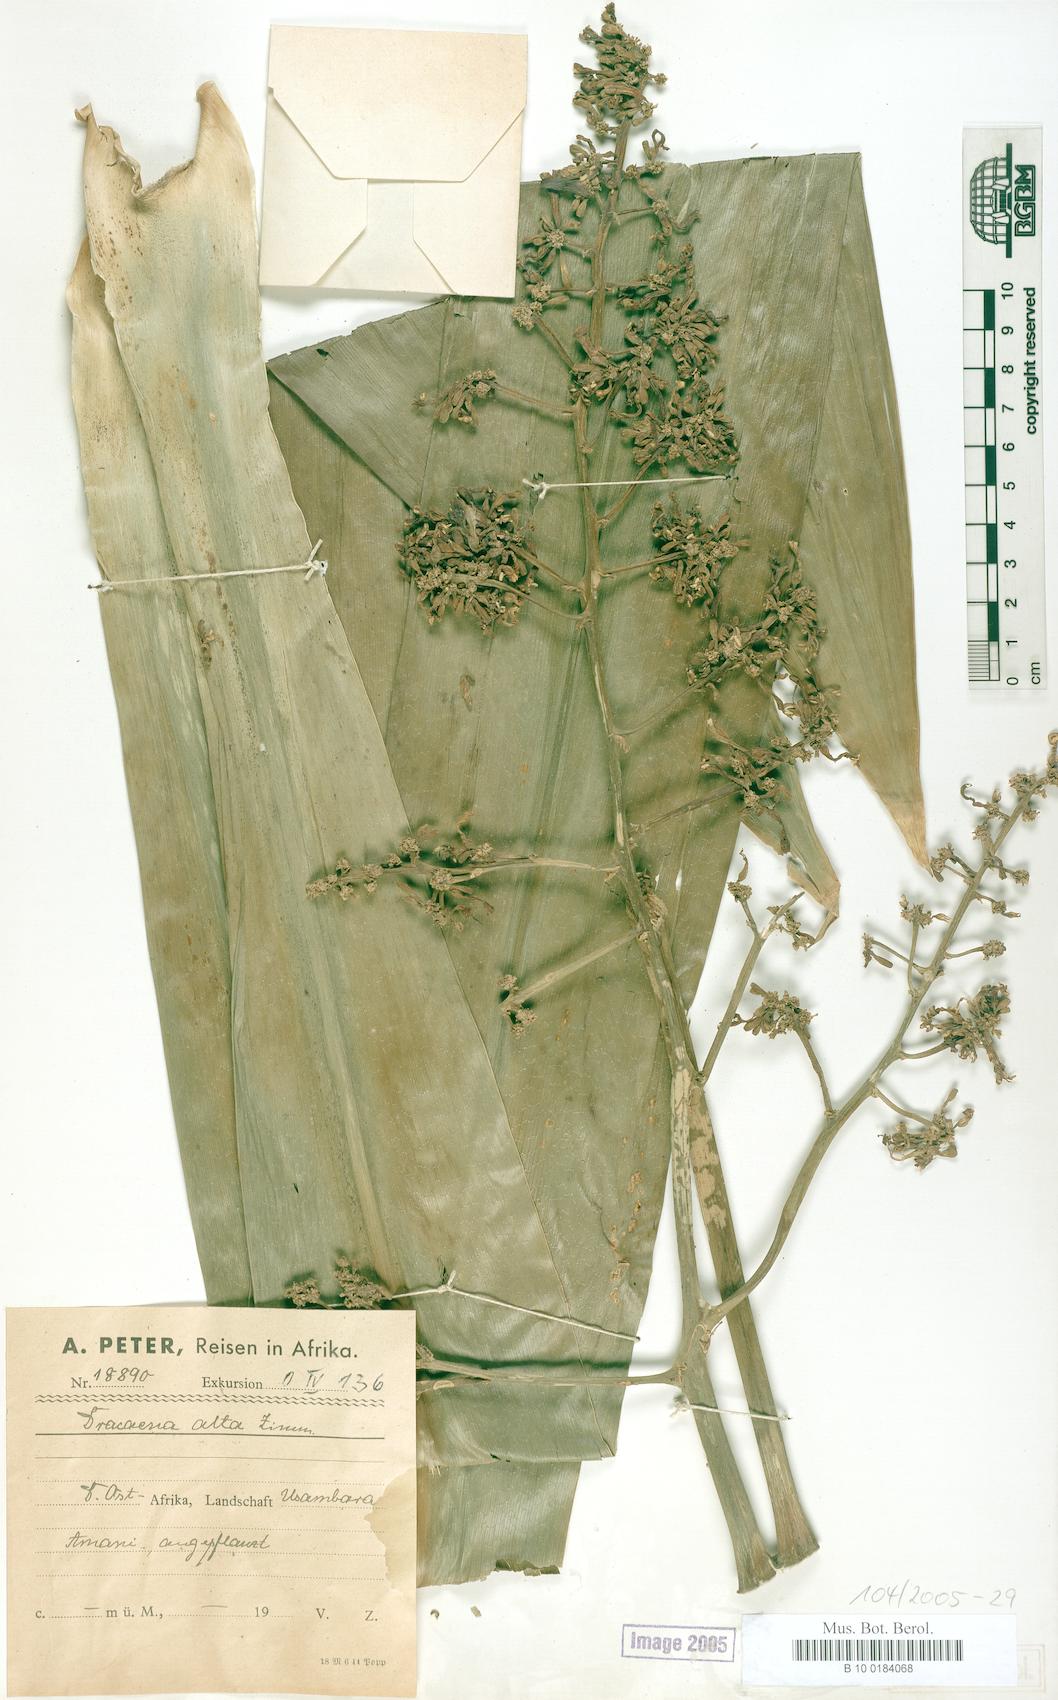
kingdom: Plantae
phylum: Tracheophyta
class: Liliopsida
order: Asparagales
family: Asparagaceae
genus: Dracaena
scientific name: Dracaena
